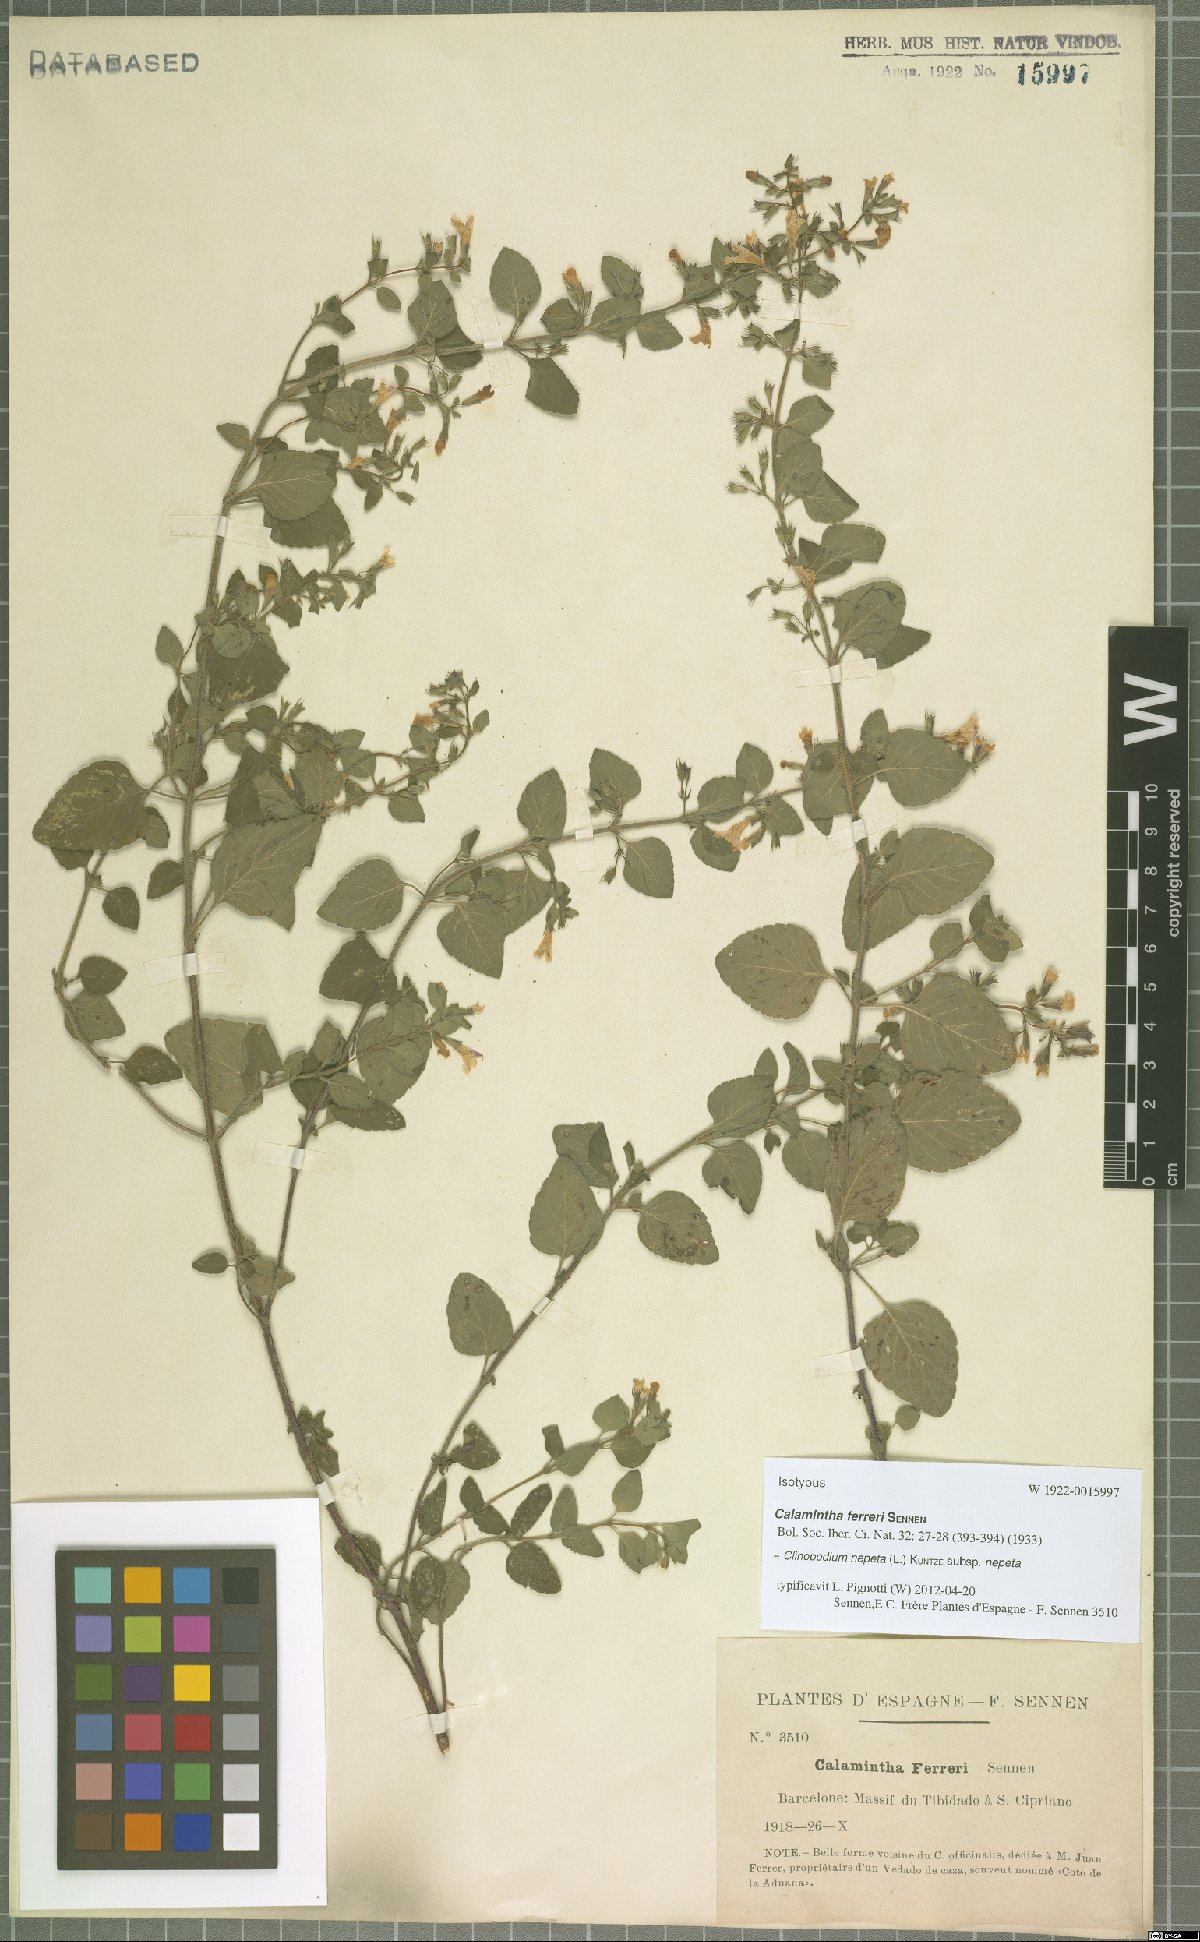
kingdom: Plantae
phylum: Tracheophyta
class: Magnoliopsida
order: Lamiales
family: Lamiaceae
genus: Clinopodium
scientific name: Clinopodium nepeta
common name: Lesser calamint
